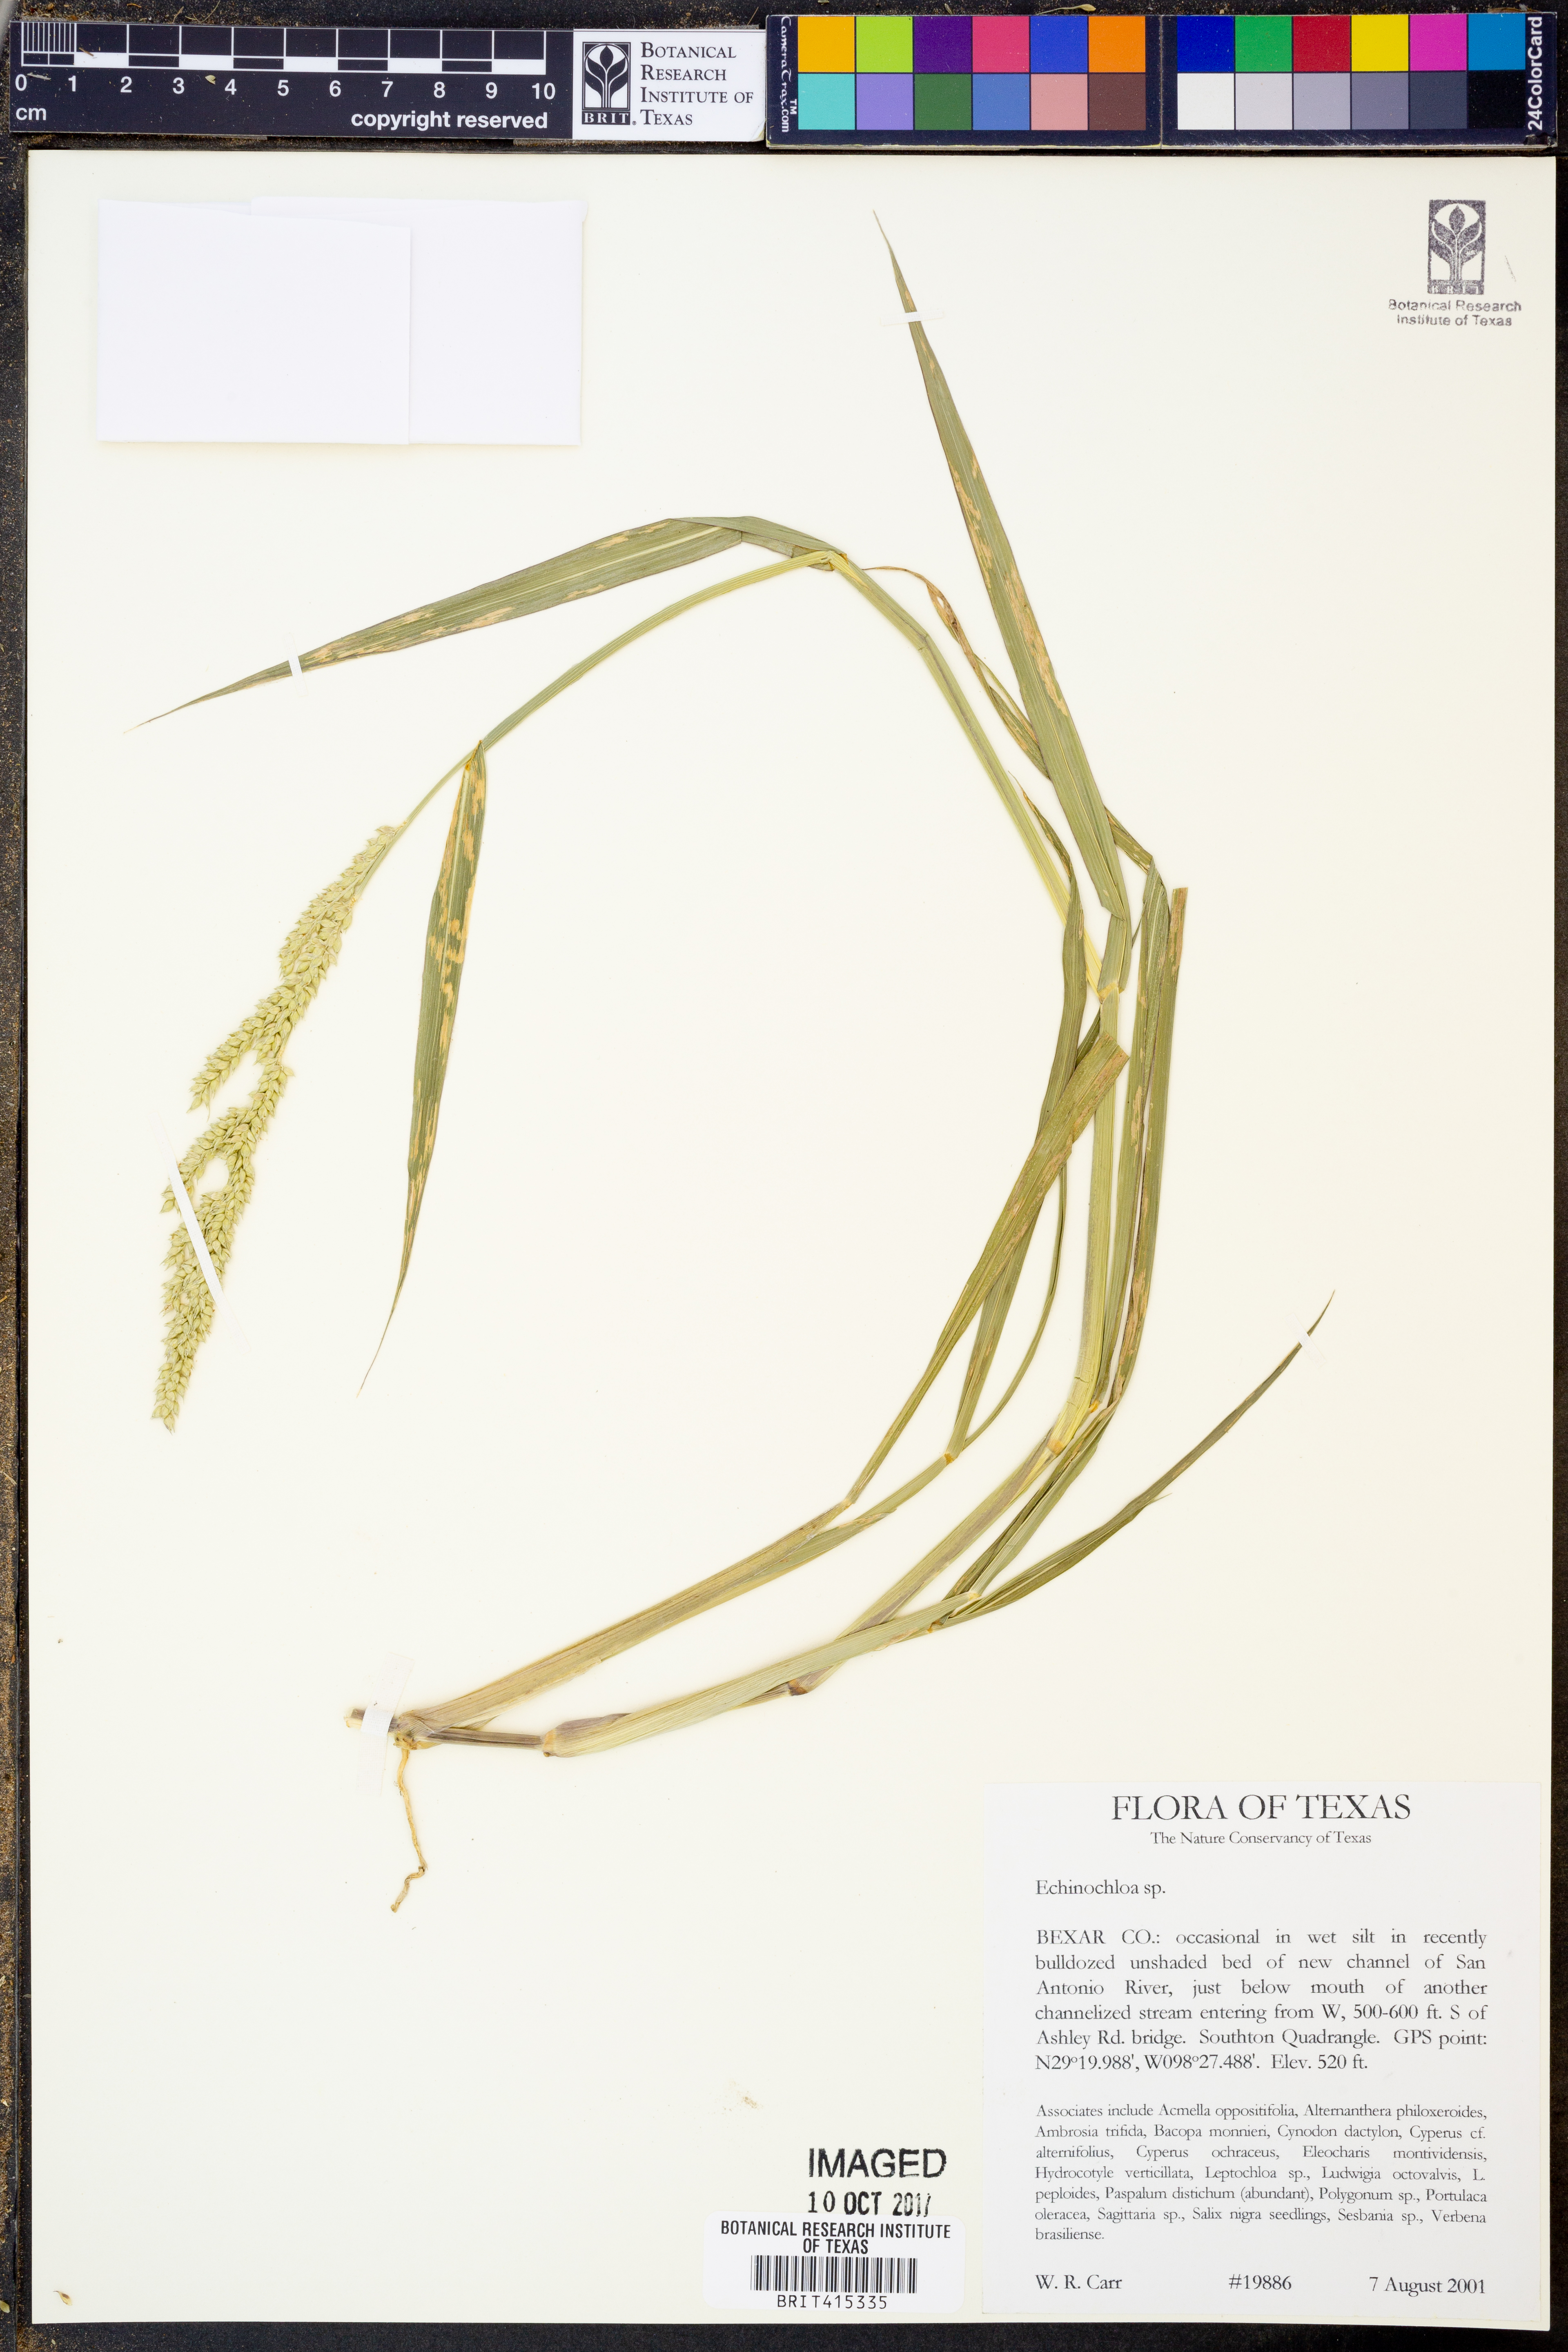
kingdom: Plantae
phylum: Tracheophyta
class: Liliopsida
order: Poales
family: Poaceae
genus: Echinochloa
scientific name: Echinochloa
